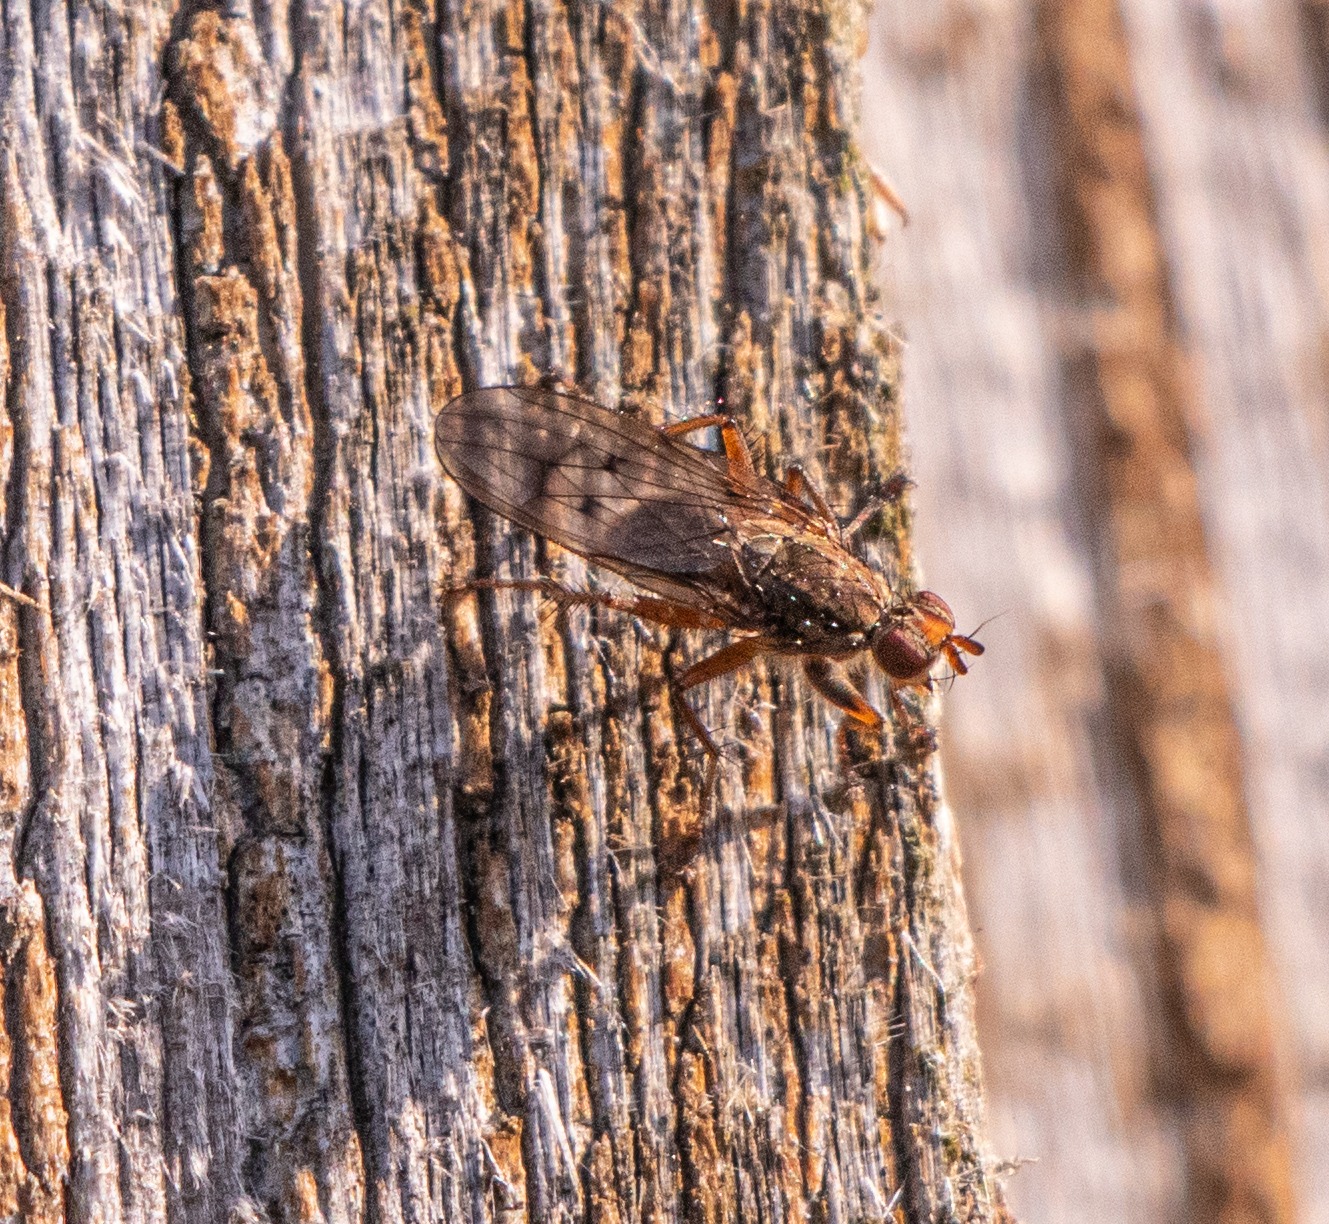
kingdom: Animalia
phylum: Arthropoda
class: Insecta
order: Diptera
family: Scathophagidae
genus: Scathophaga
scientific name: Scathophaga furcata
